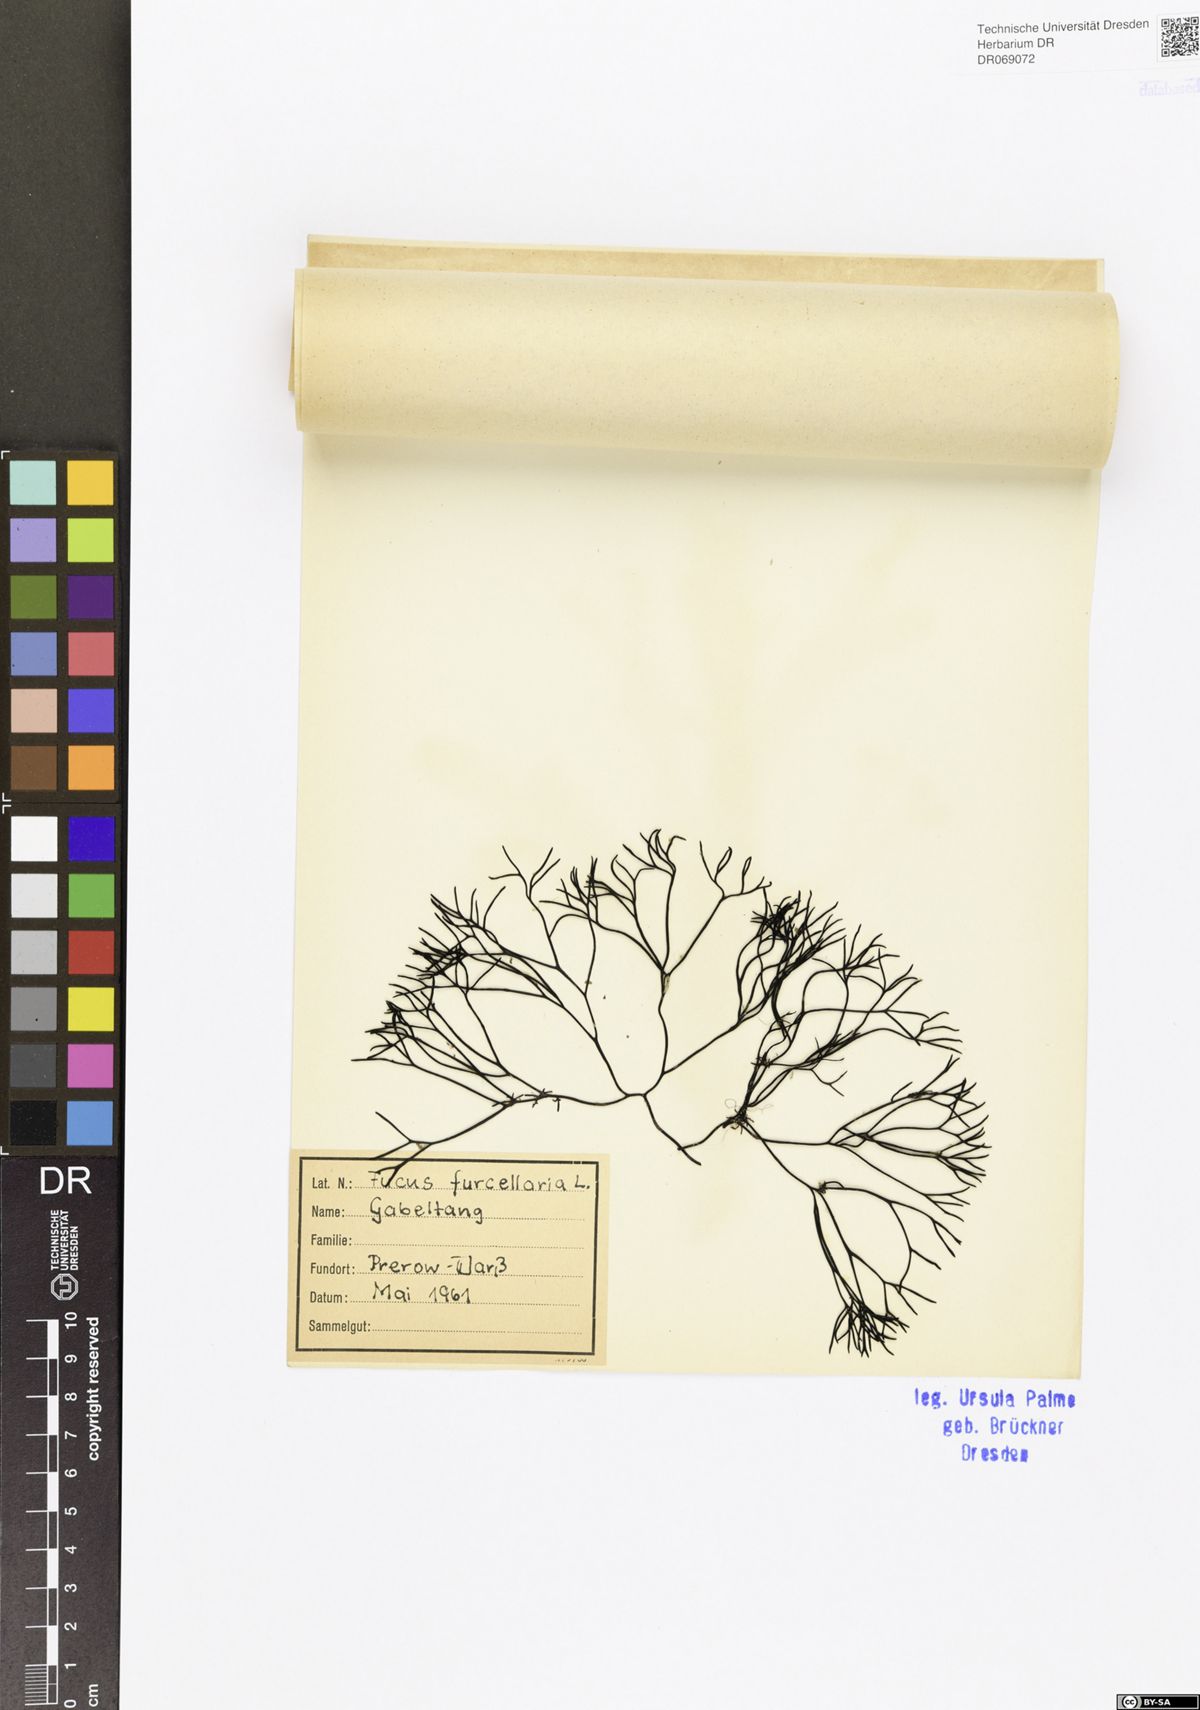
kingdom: Chromista
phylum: Ochrophyta
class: Phaeophyceae
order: Fucales
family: Fucaceae
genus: Fucus
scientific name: Fucus
